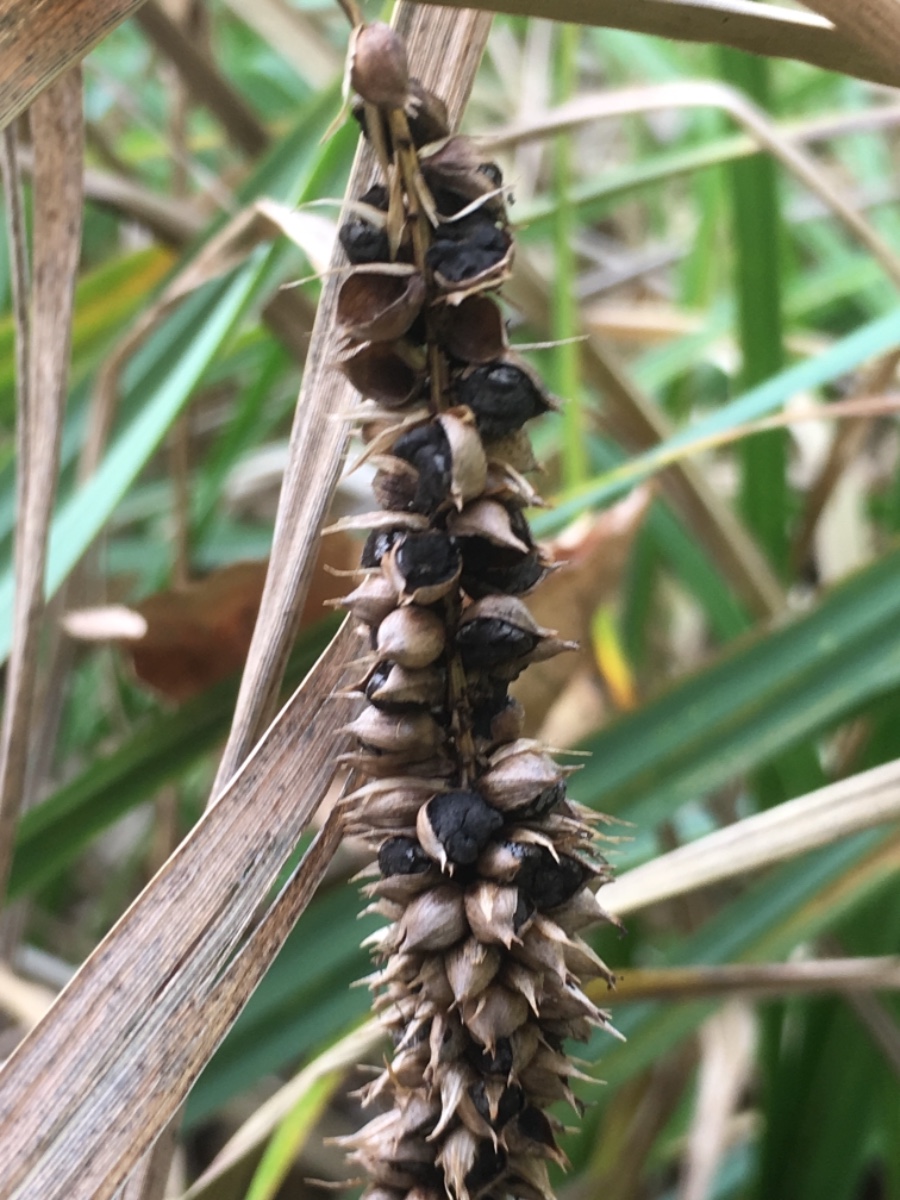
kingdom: Fungi
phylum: Basidiomycota
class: Ustilaginomycetes
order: Ustilaginales
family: Anthracoideaceae
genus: Anthracoidea
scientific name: Anthracoidea subinclusa
